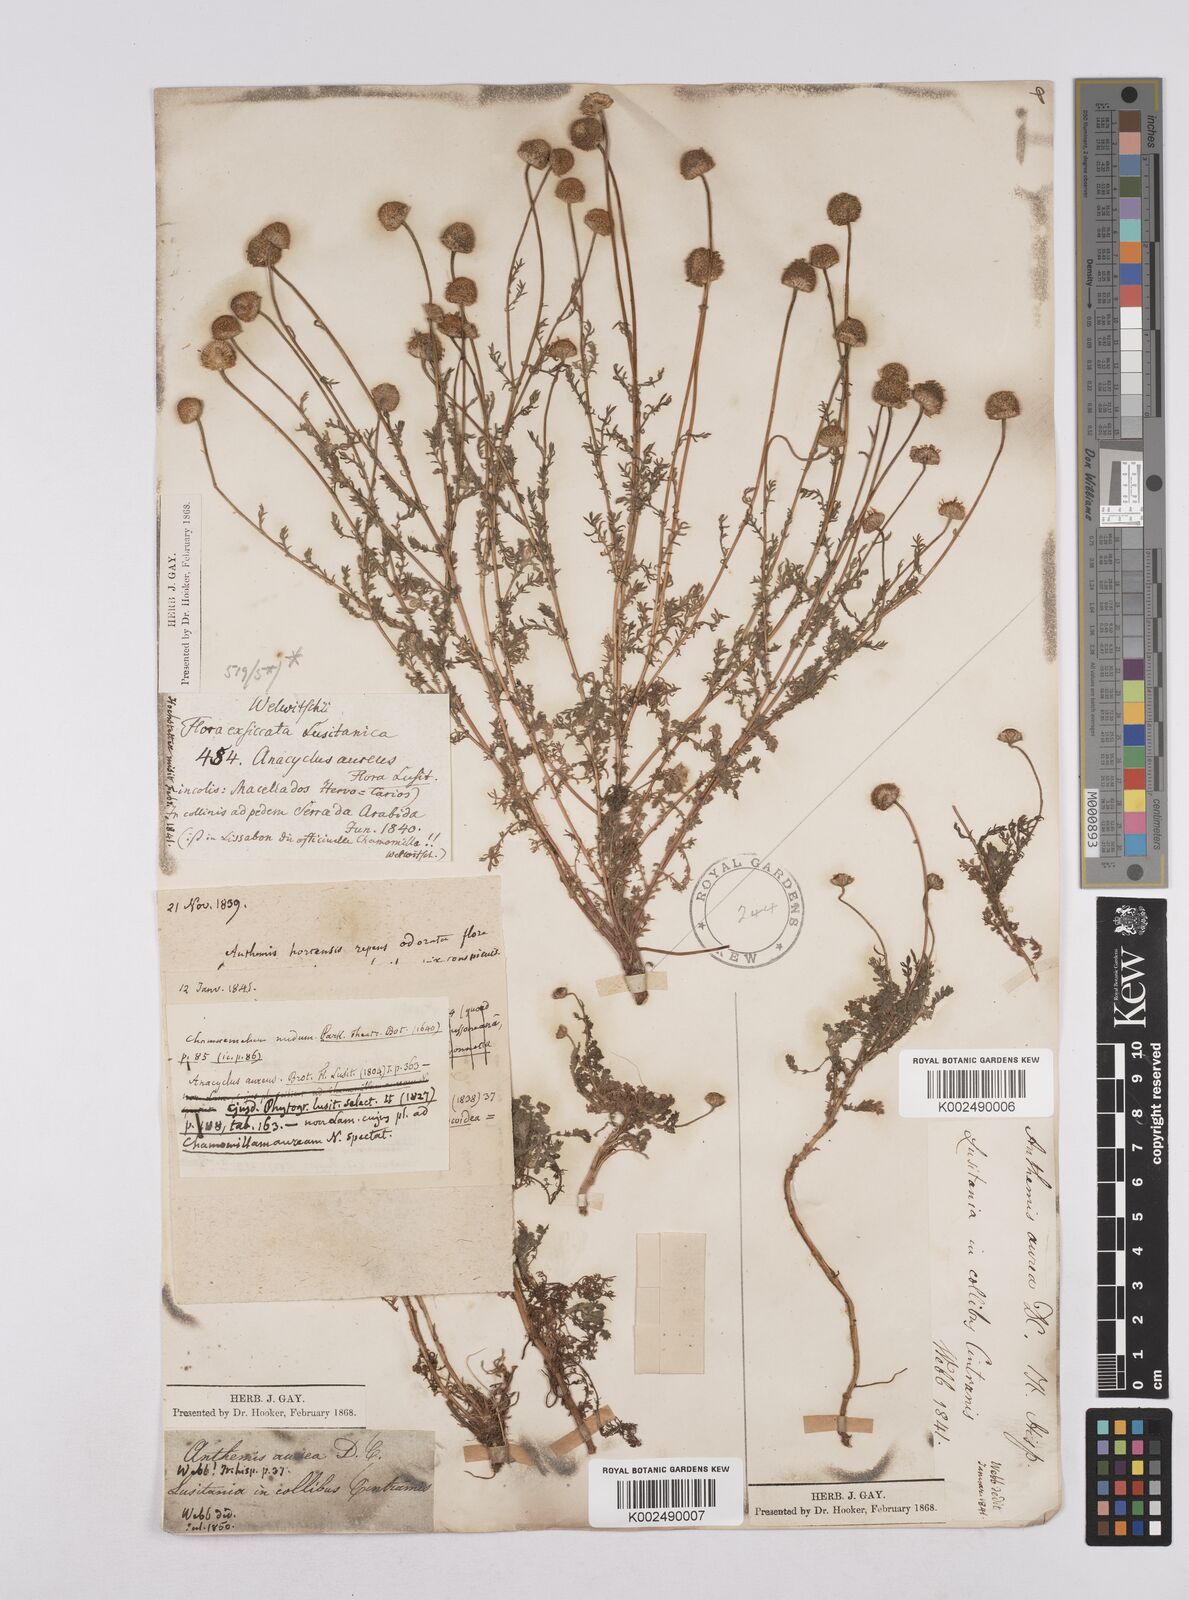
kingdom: Plantae
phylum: Tracheophyta
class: Magnoliopsida
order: Asterales
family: Asteraceae
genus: Matricaria
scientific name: Matricaria aurea
